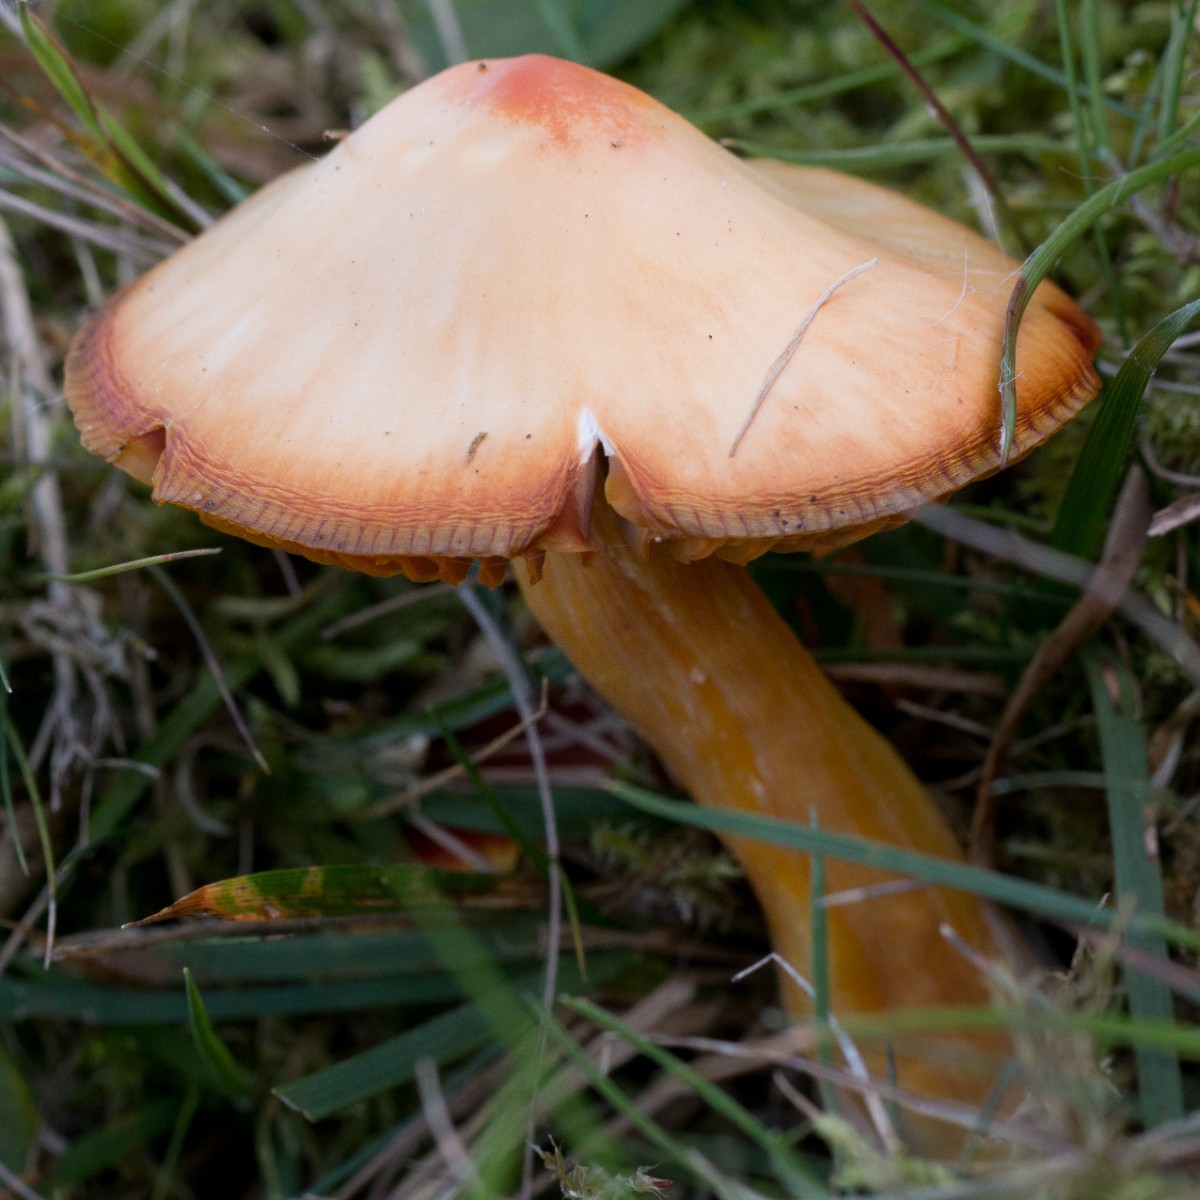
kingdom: Fungi
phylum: Basidiomycota
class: Agaricomycetes
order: Agaricales
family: Hygrophoraceae
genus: Hygrocybe
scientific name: Hygrocybe punicea
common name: skarlagen-vokshat
